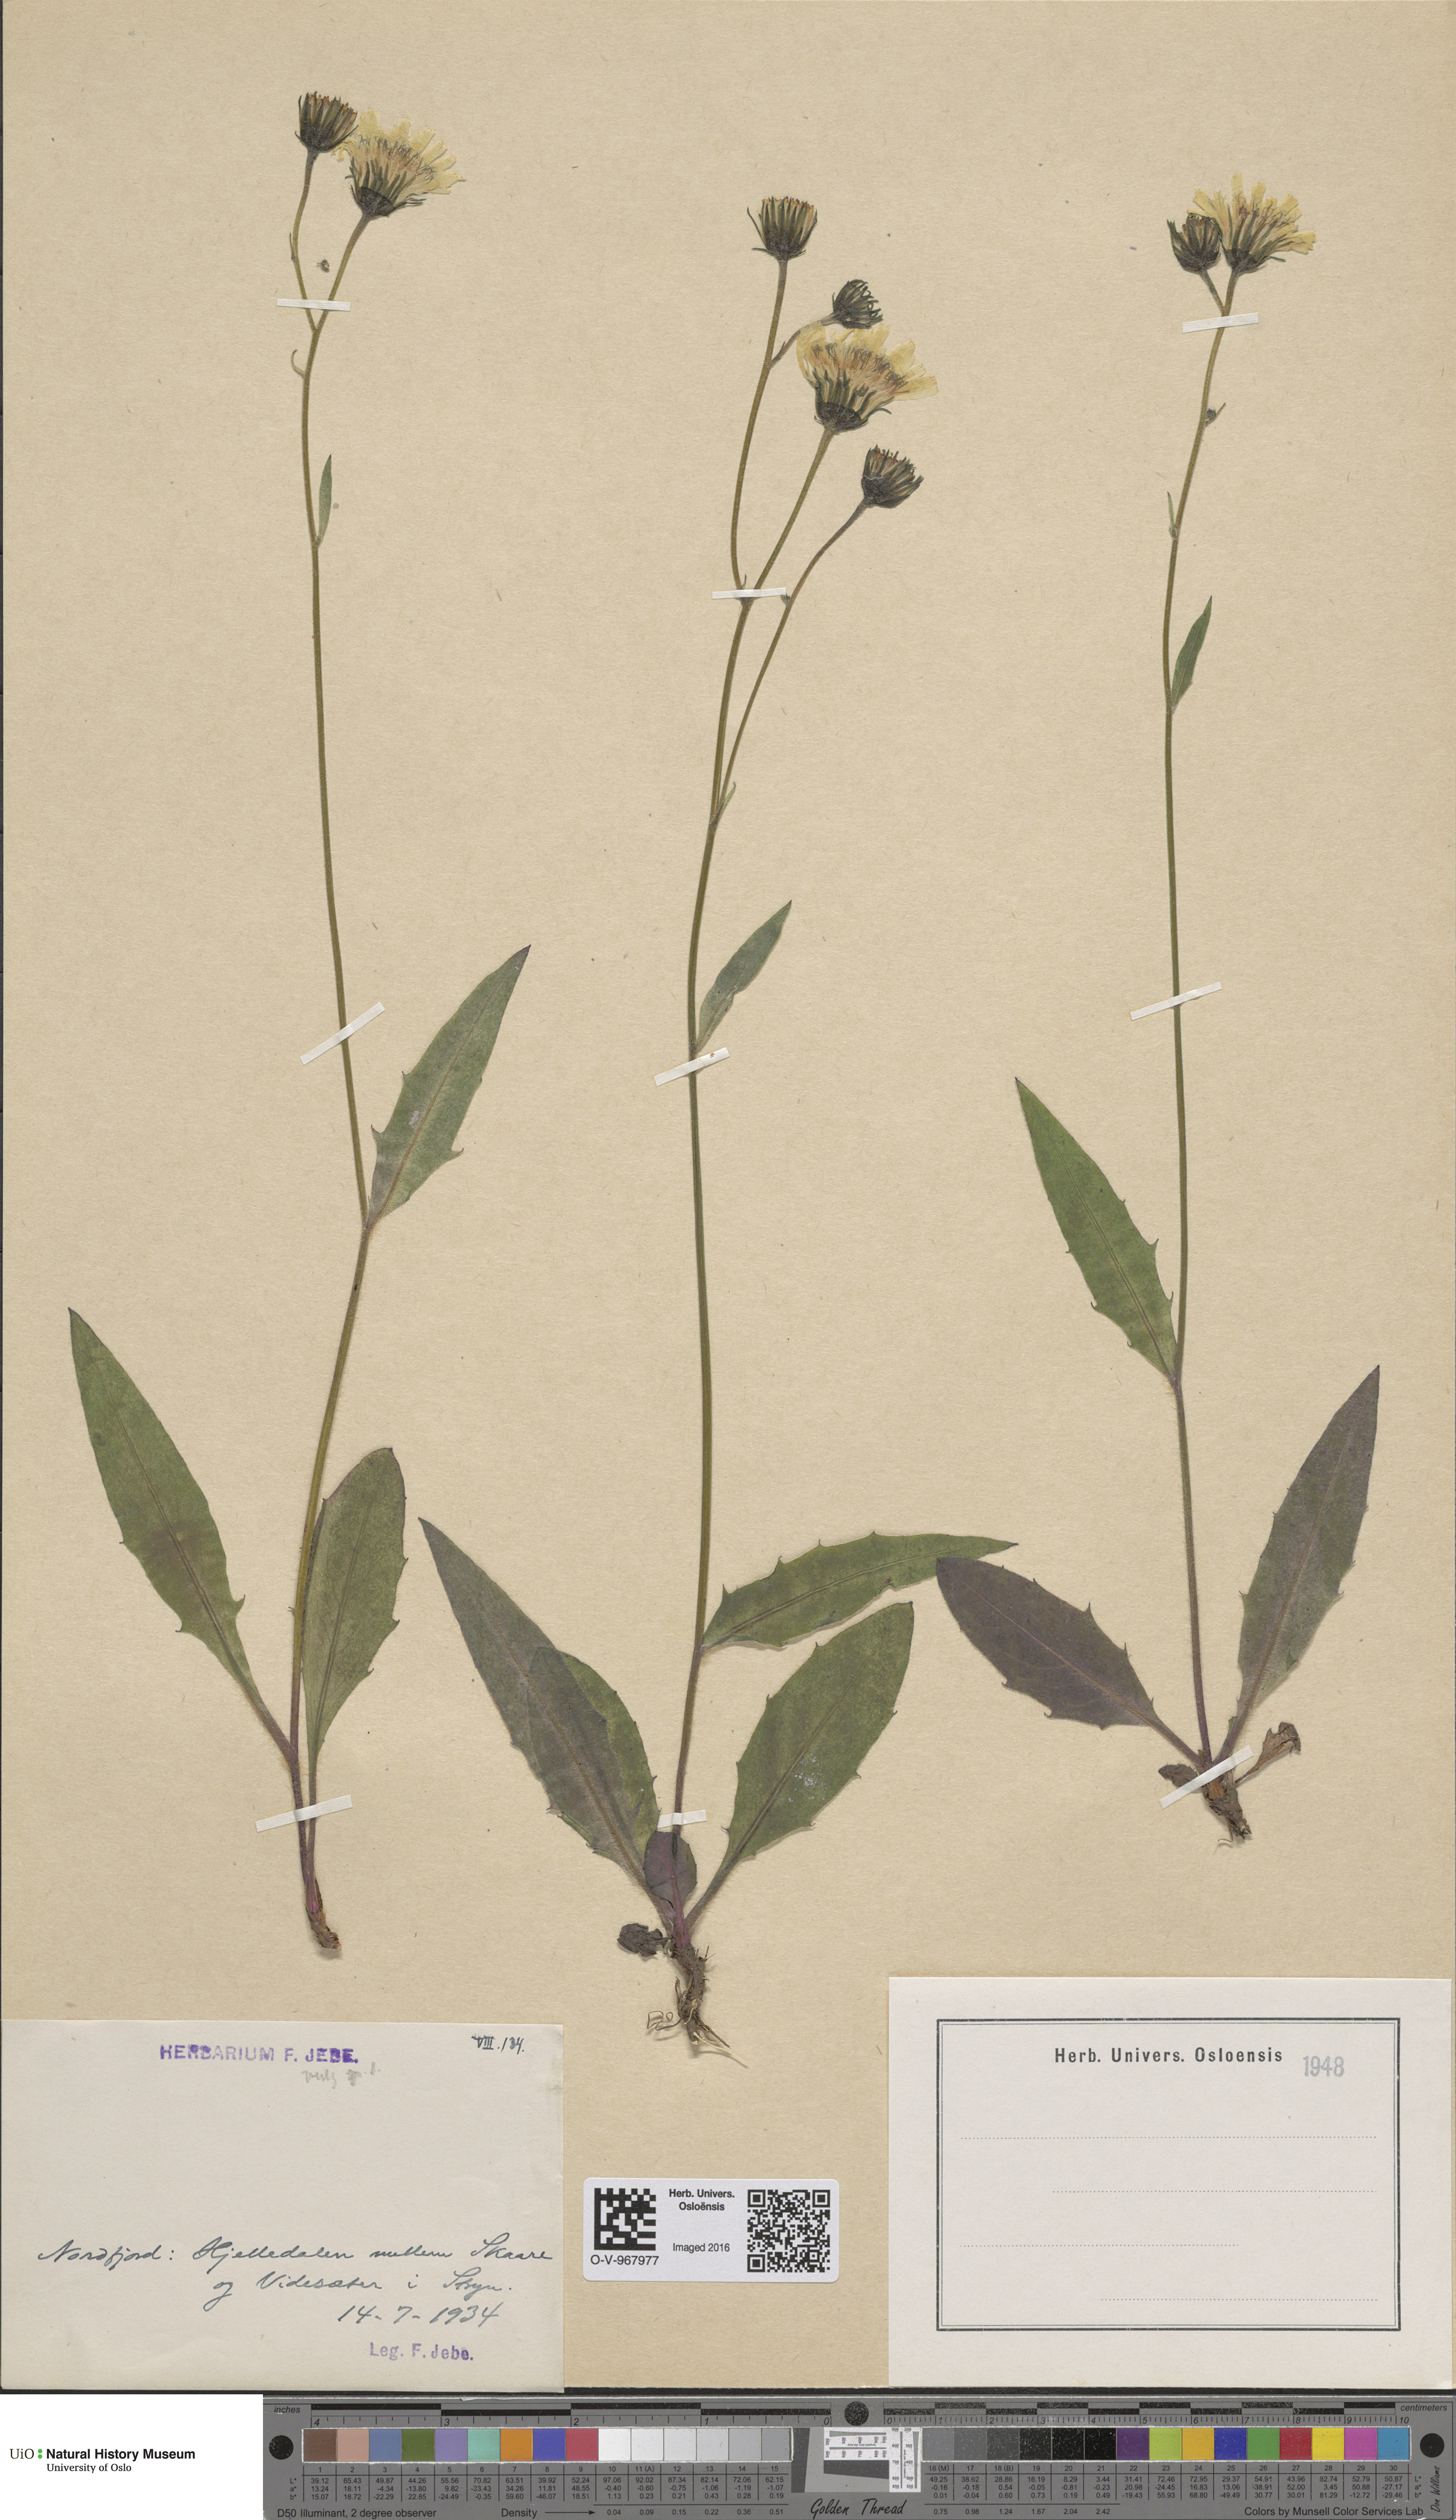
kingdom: Plantae
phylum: Tracheophyta
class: Magnoliopsida
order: Asterales
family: Asteraceae
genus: Hieracium
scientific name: Hieracium vulgatum
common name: Common hawkweed
